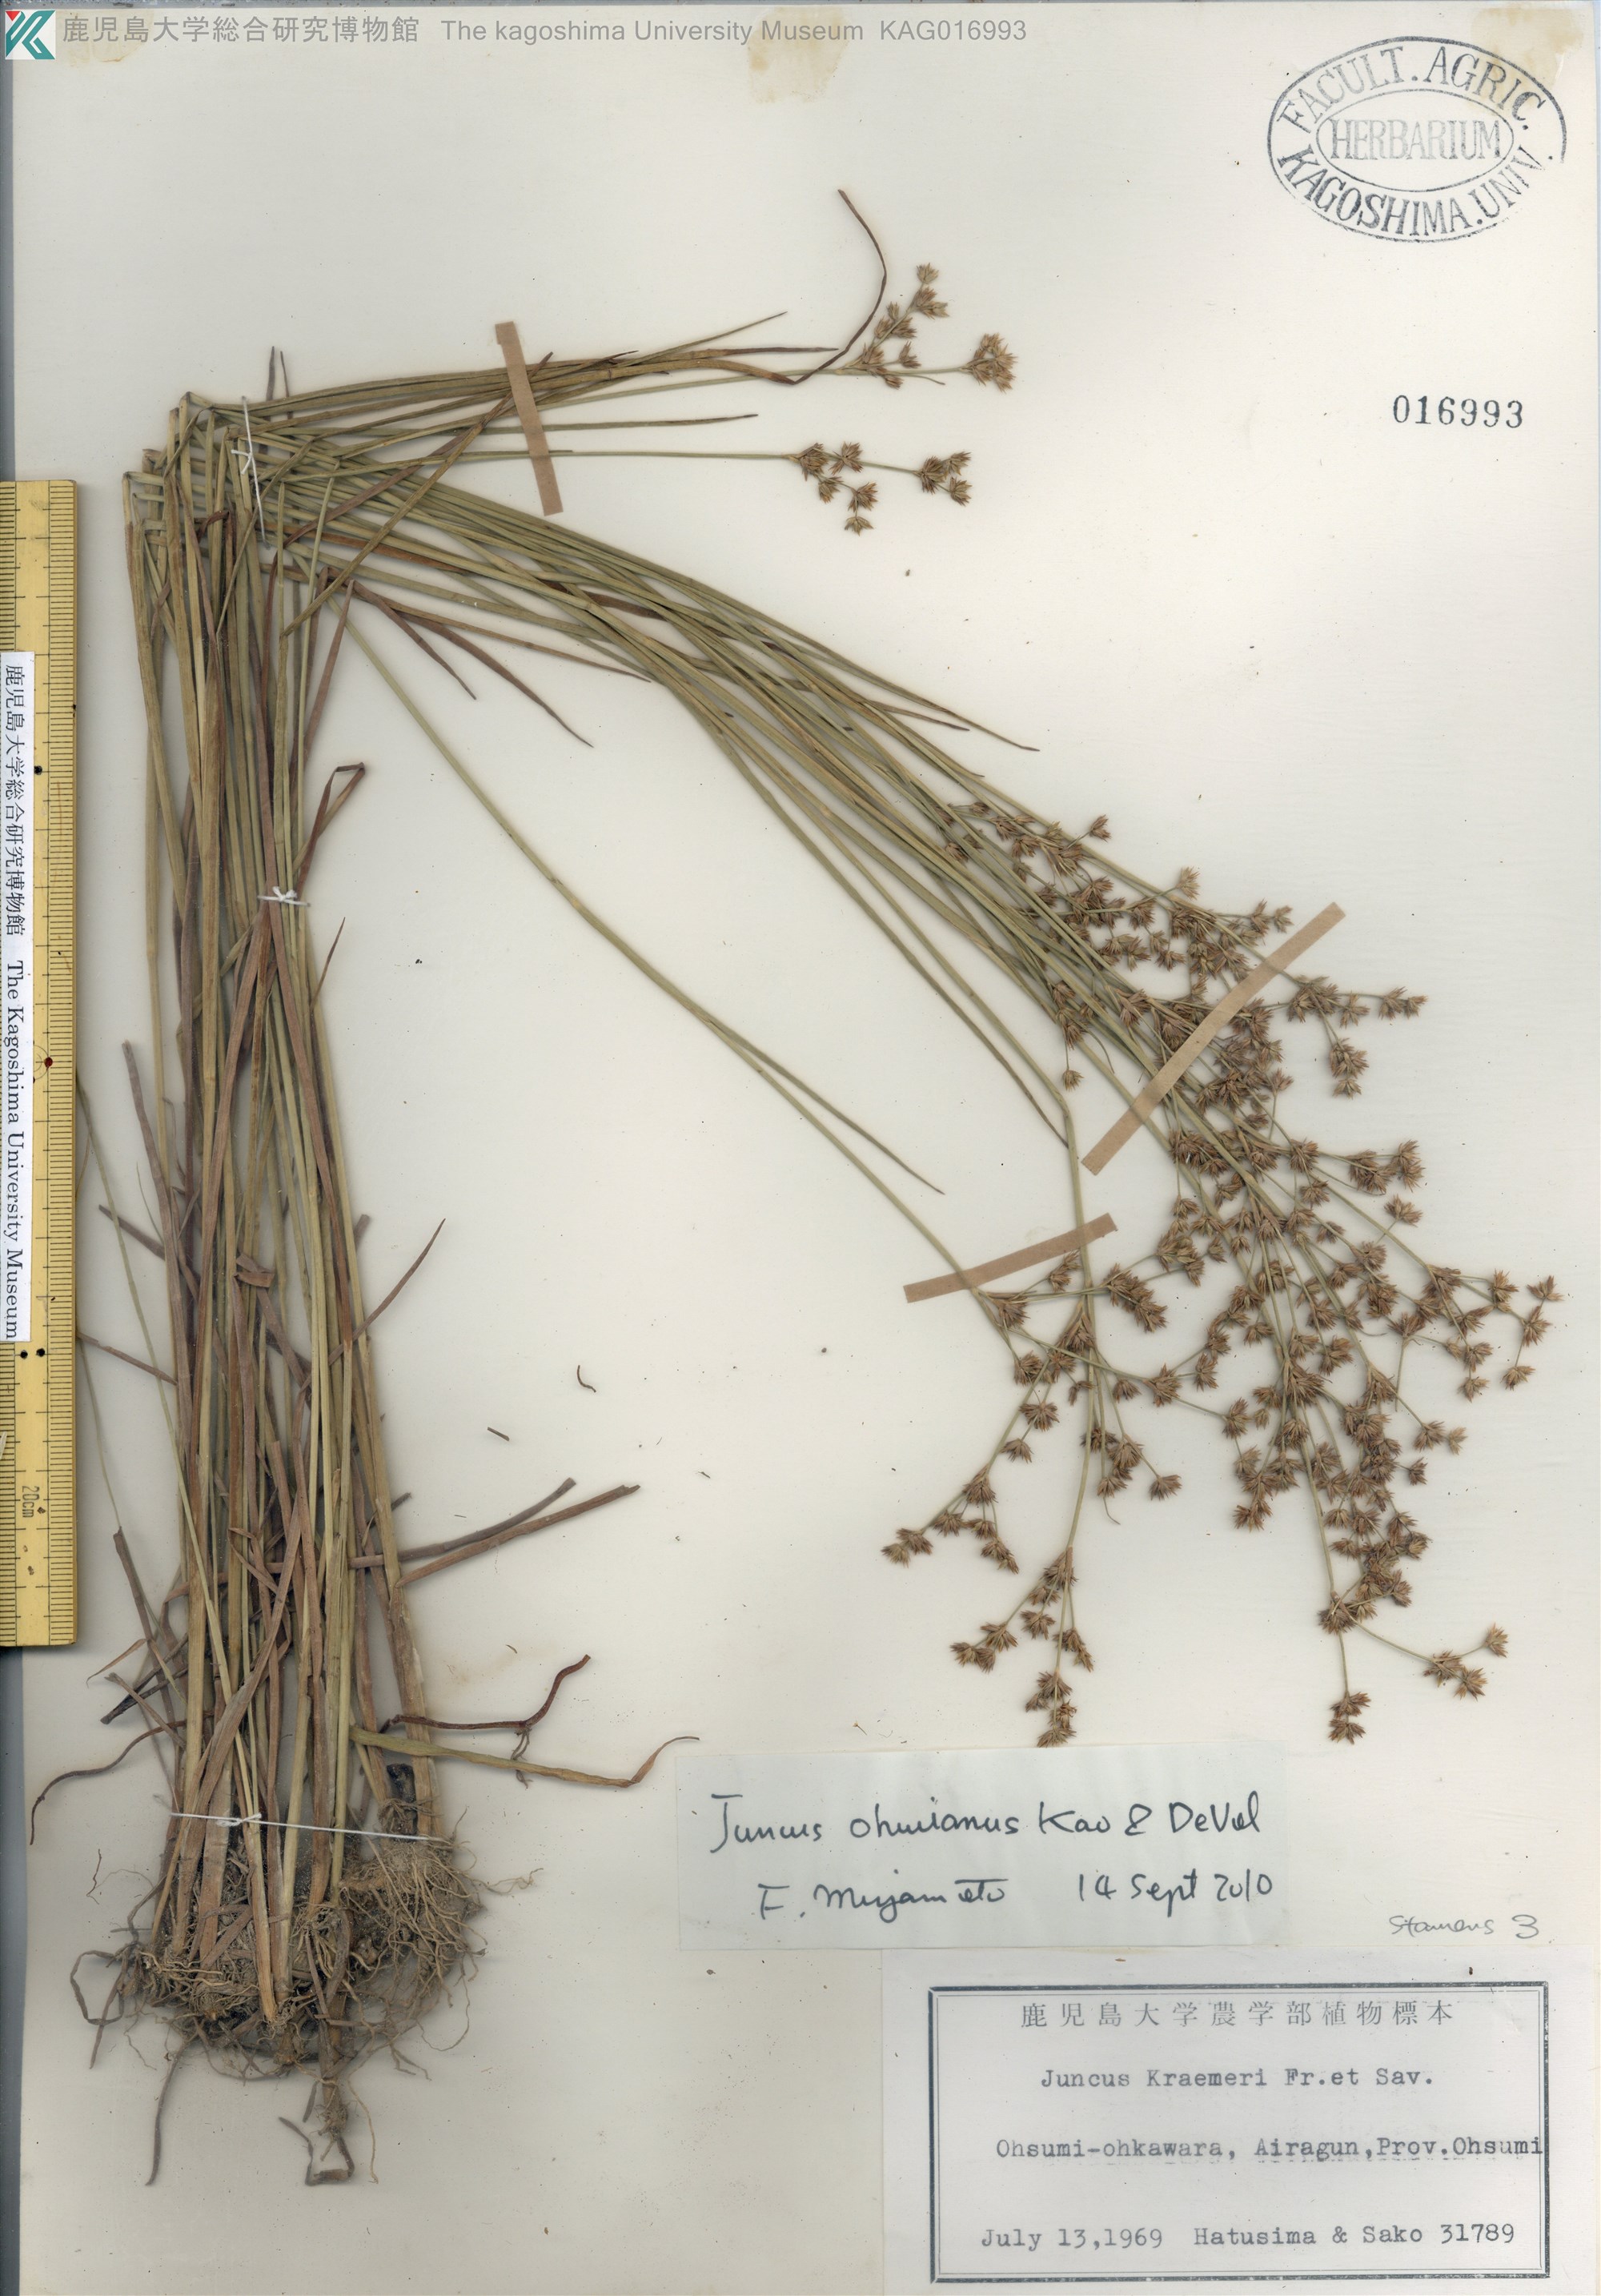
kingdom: Plantae
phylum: Tracheophyta
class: Liliopsida
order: Poales
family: Juncaceae
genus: Juncus
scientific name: Juncus wallichianus
